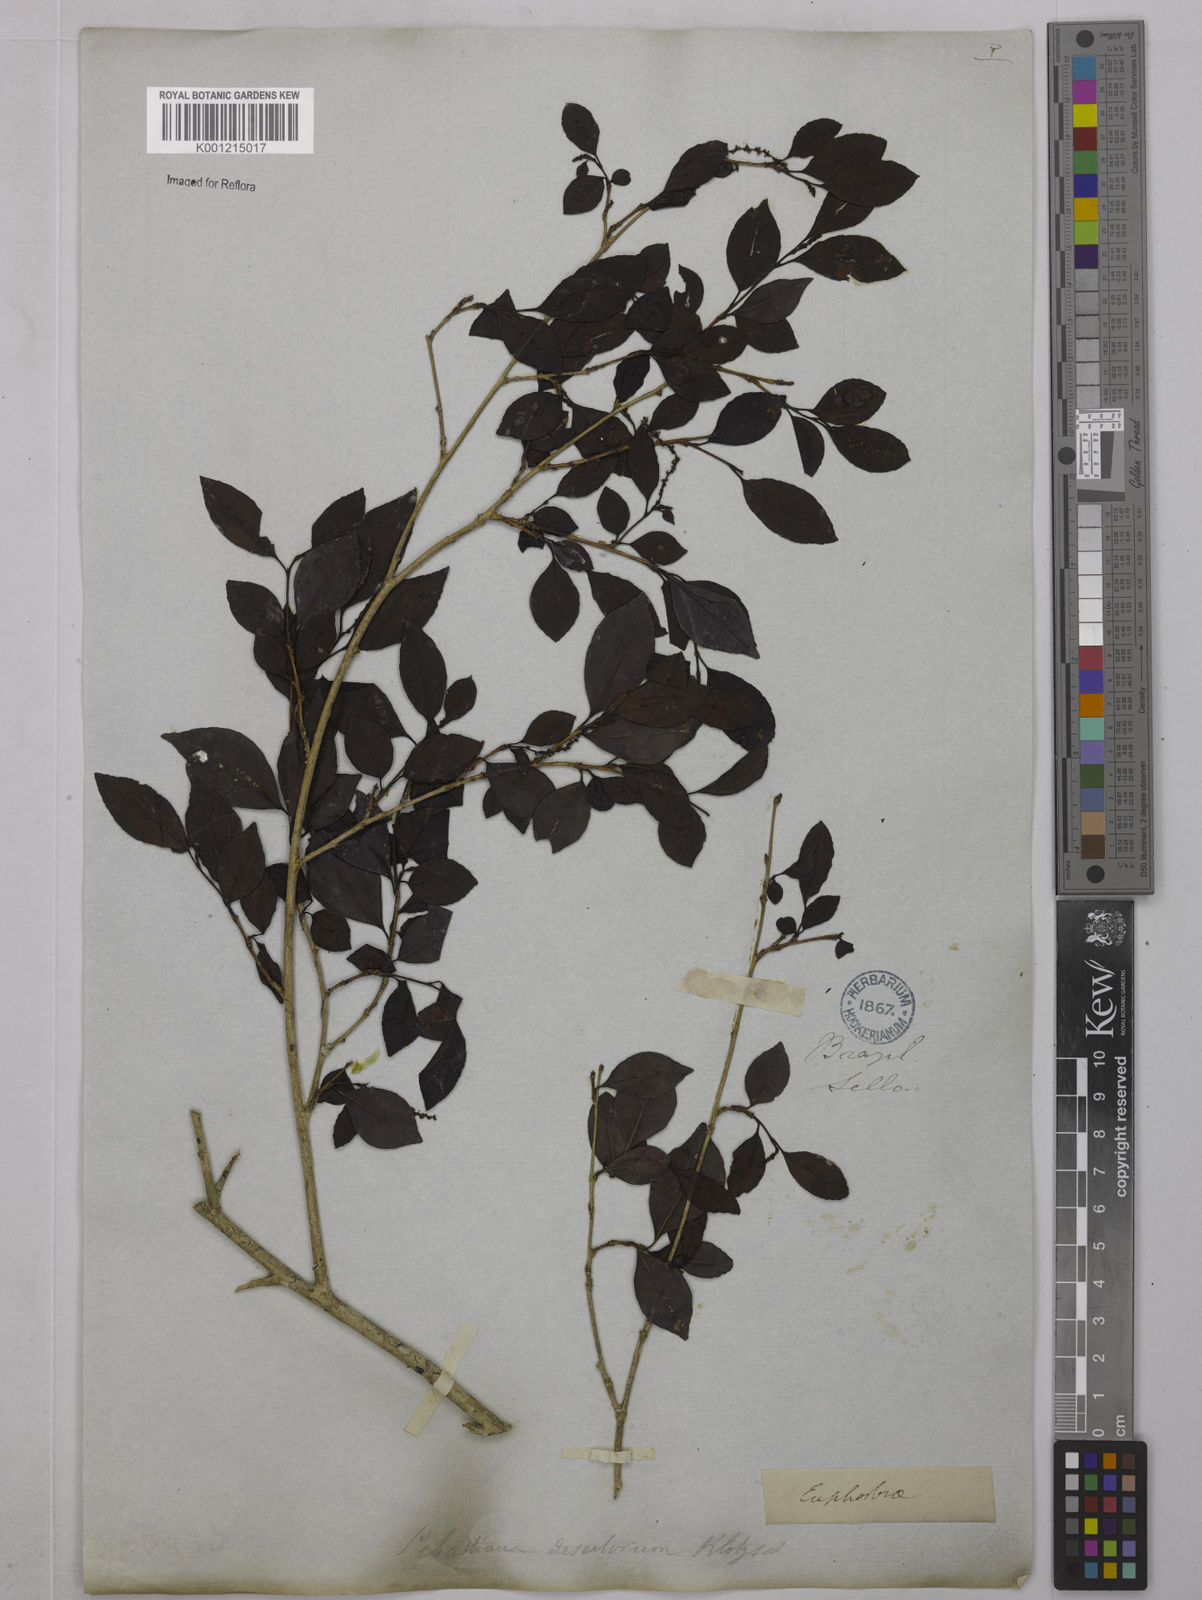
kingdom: Plantae
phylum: Tracheophyta
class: Magnoliopsida
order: Malpighiales
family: Euphorbiaceae
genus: Sebastiania
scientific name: Sebastiania brasiliensis
